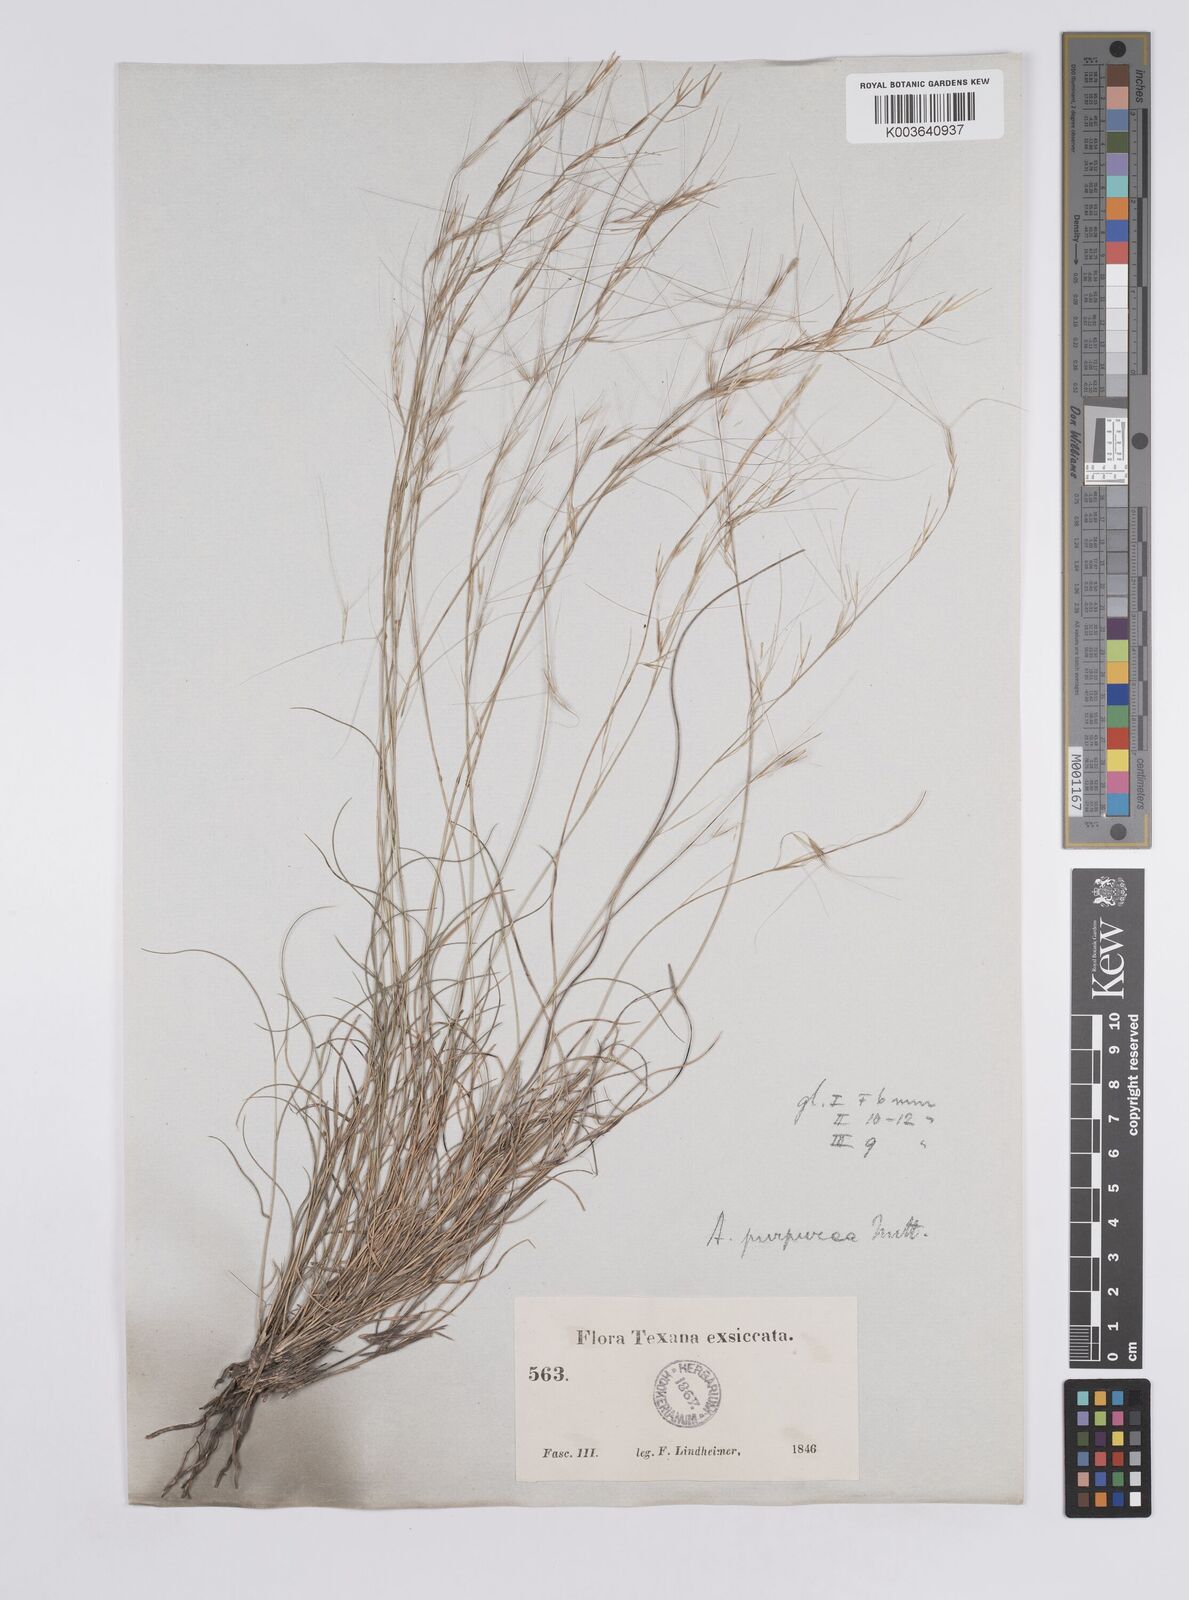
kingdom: Plantae
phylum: Tracheophyta
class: Liliopsida
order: Poales
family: Poaceae
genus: Aristida
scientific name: Aristida purpurea
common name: Purple threeawn
